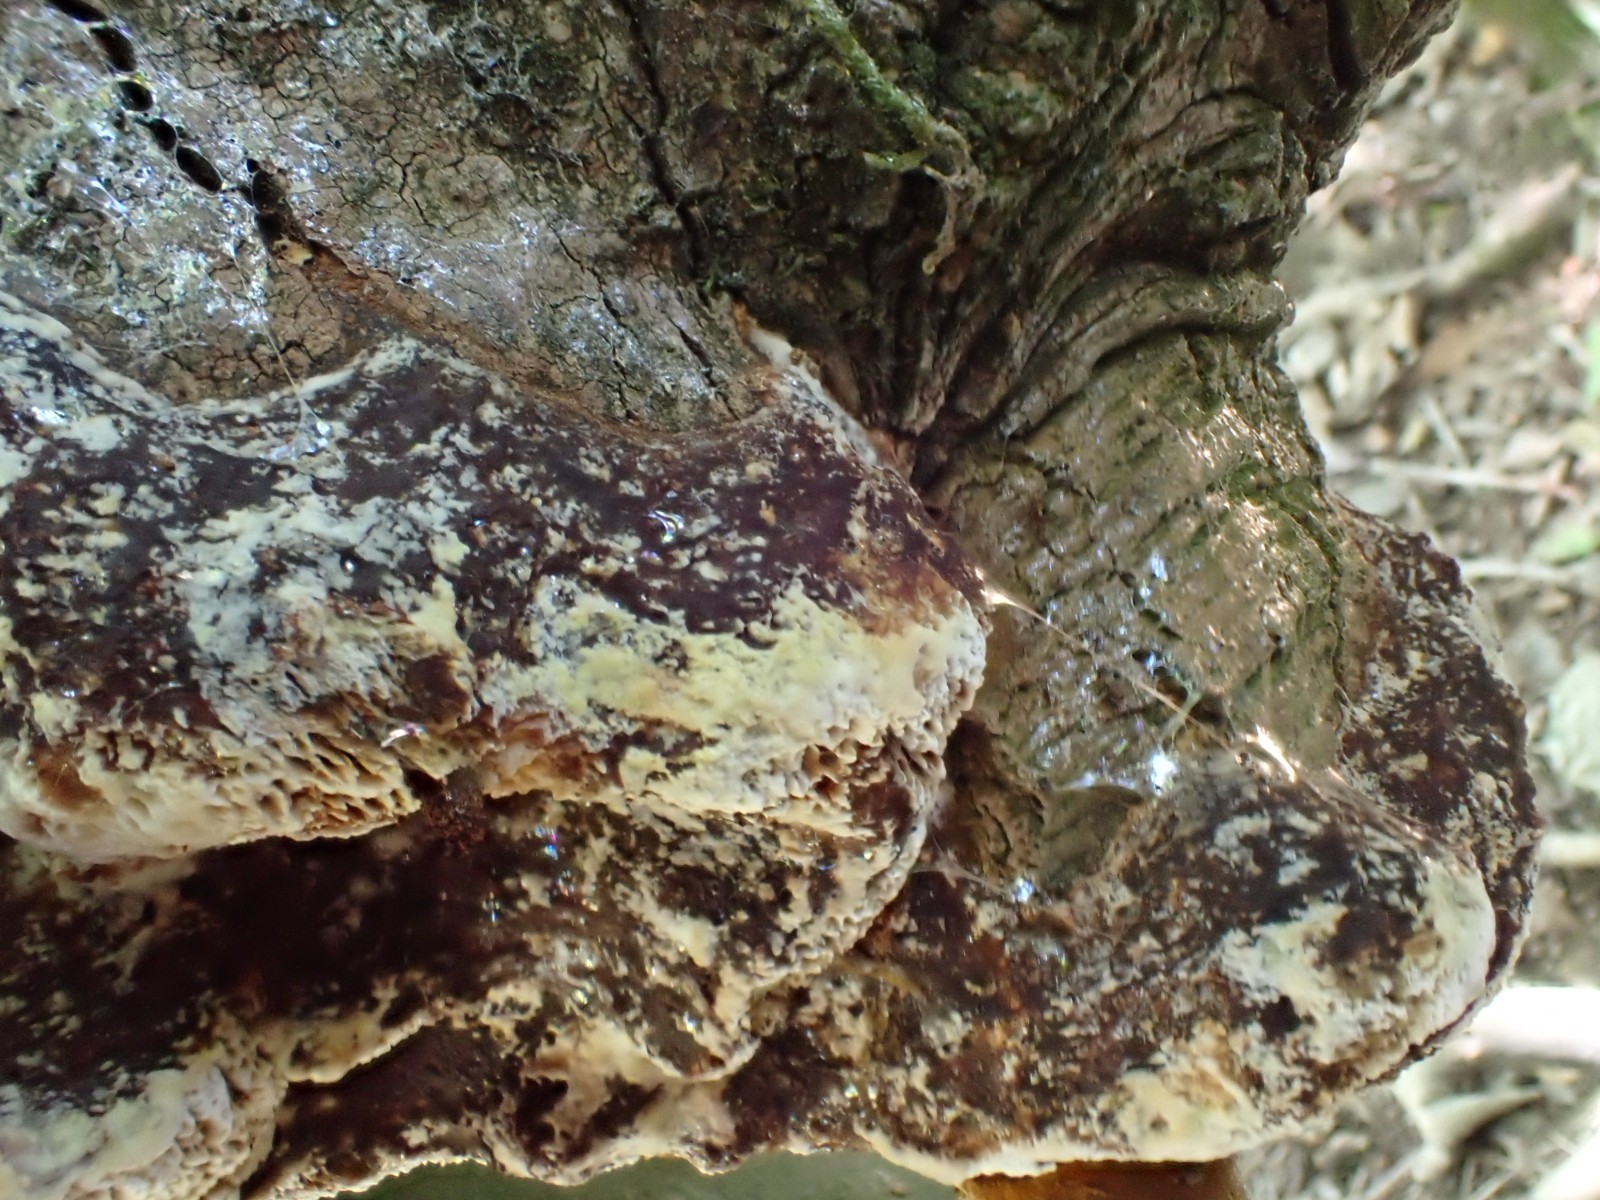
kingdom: Fungi
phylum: Basidiomycota
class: Agaricomycetes
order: Hymenochaetales
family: Hymenochaetaceae
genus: Inocutis
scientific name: Inocutis rheades
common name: ræve-spejlporesvamp
